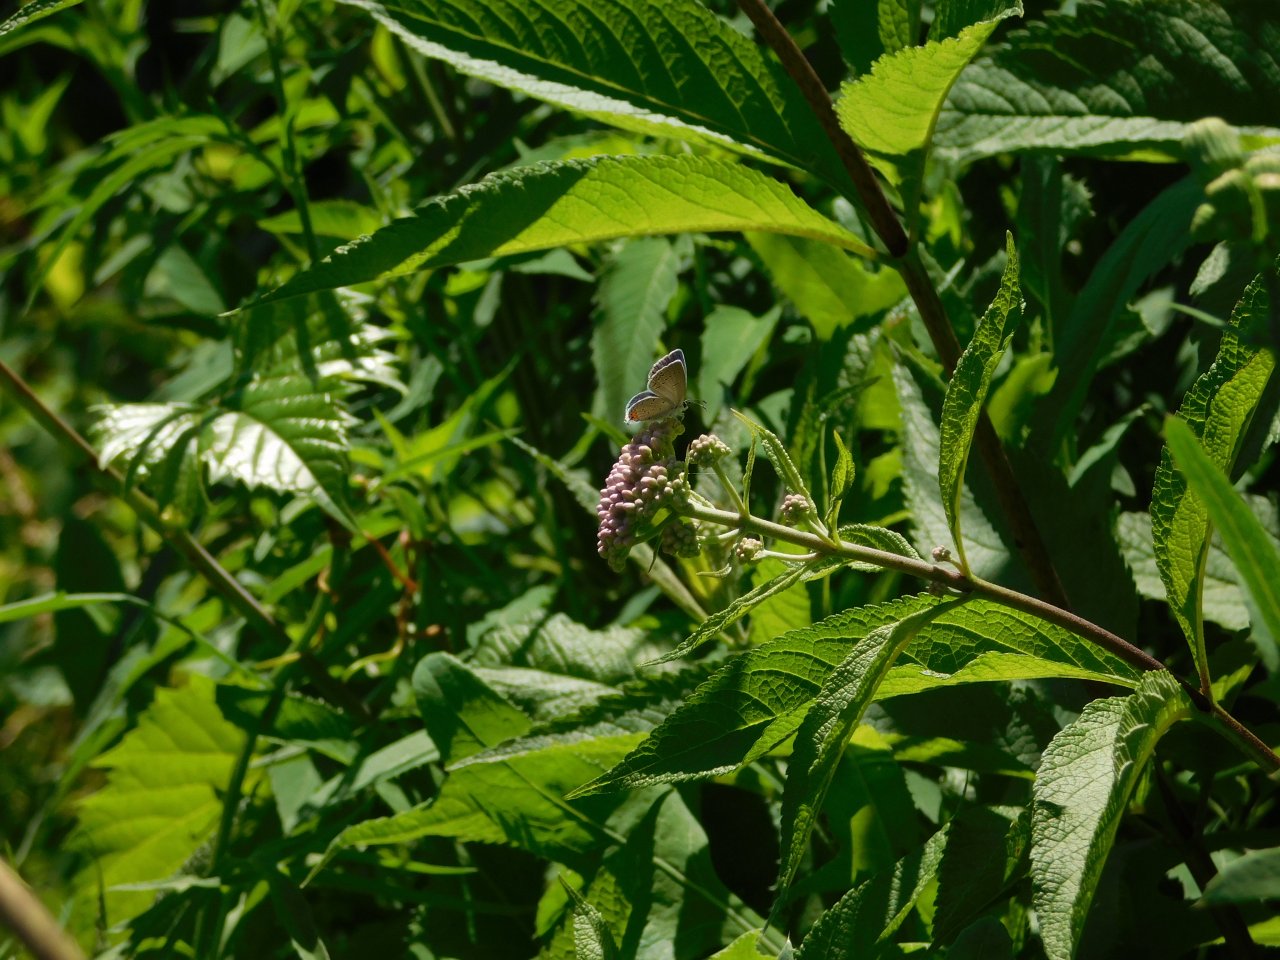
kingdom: Animalia
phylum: Arthropoda
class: Insecta
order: Lepidoptera
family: Lycaenidae
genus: Elkalyce
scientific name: Elkalyce comyntas
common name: Eastern Tailed-Blue
